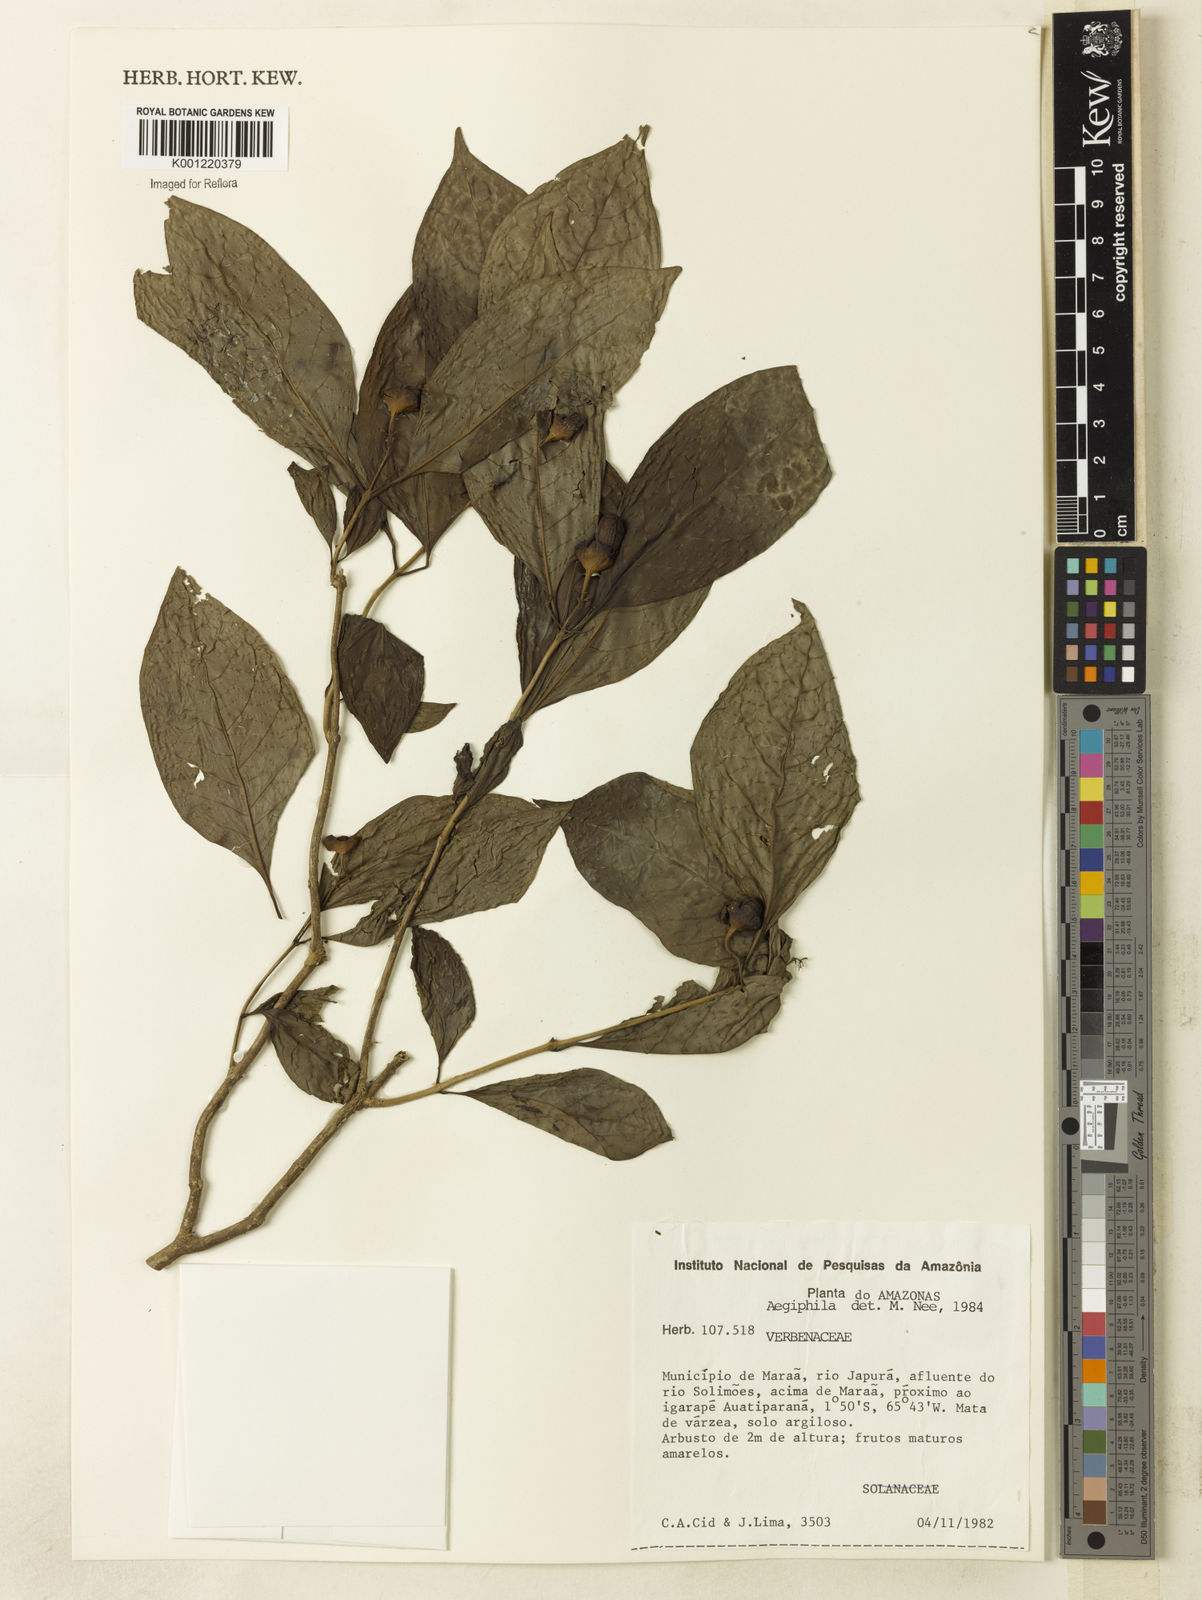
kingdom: Plantae
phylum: Tracheophyta
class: Magnoliopsida
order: Lamiales
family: Lamiaceae
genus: Aegiphila
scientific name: Aegiphila
